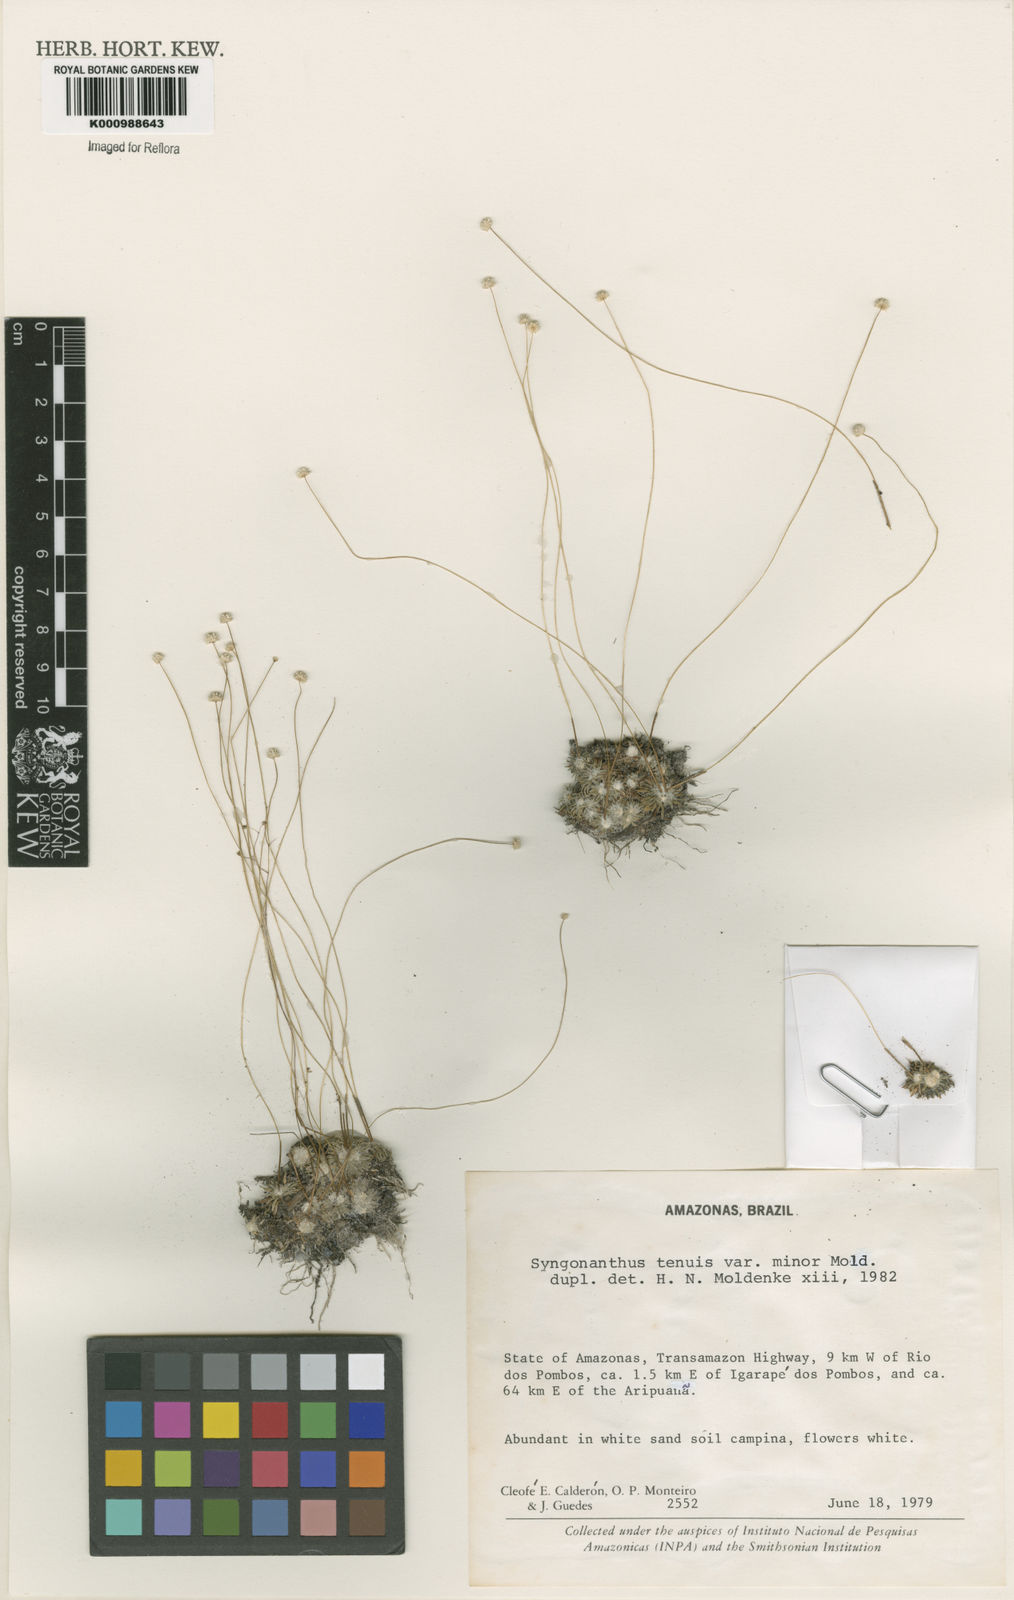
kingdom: Plantae
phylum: Tracheophyta
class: Liliopsida
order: Poales
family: Eriocaulaceae
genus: Syngonanthus
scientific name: Syngonanthus tenuis
